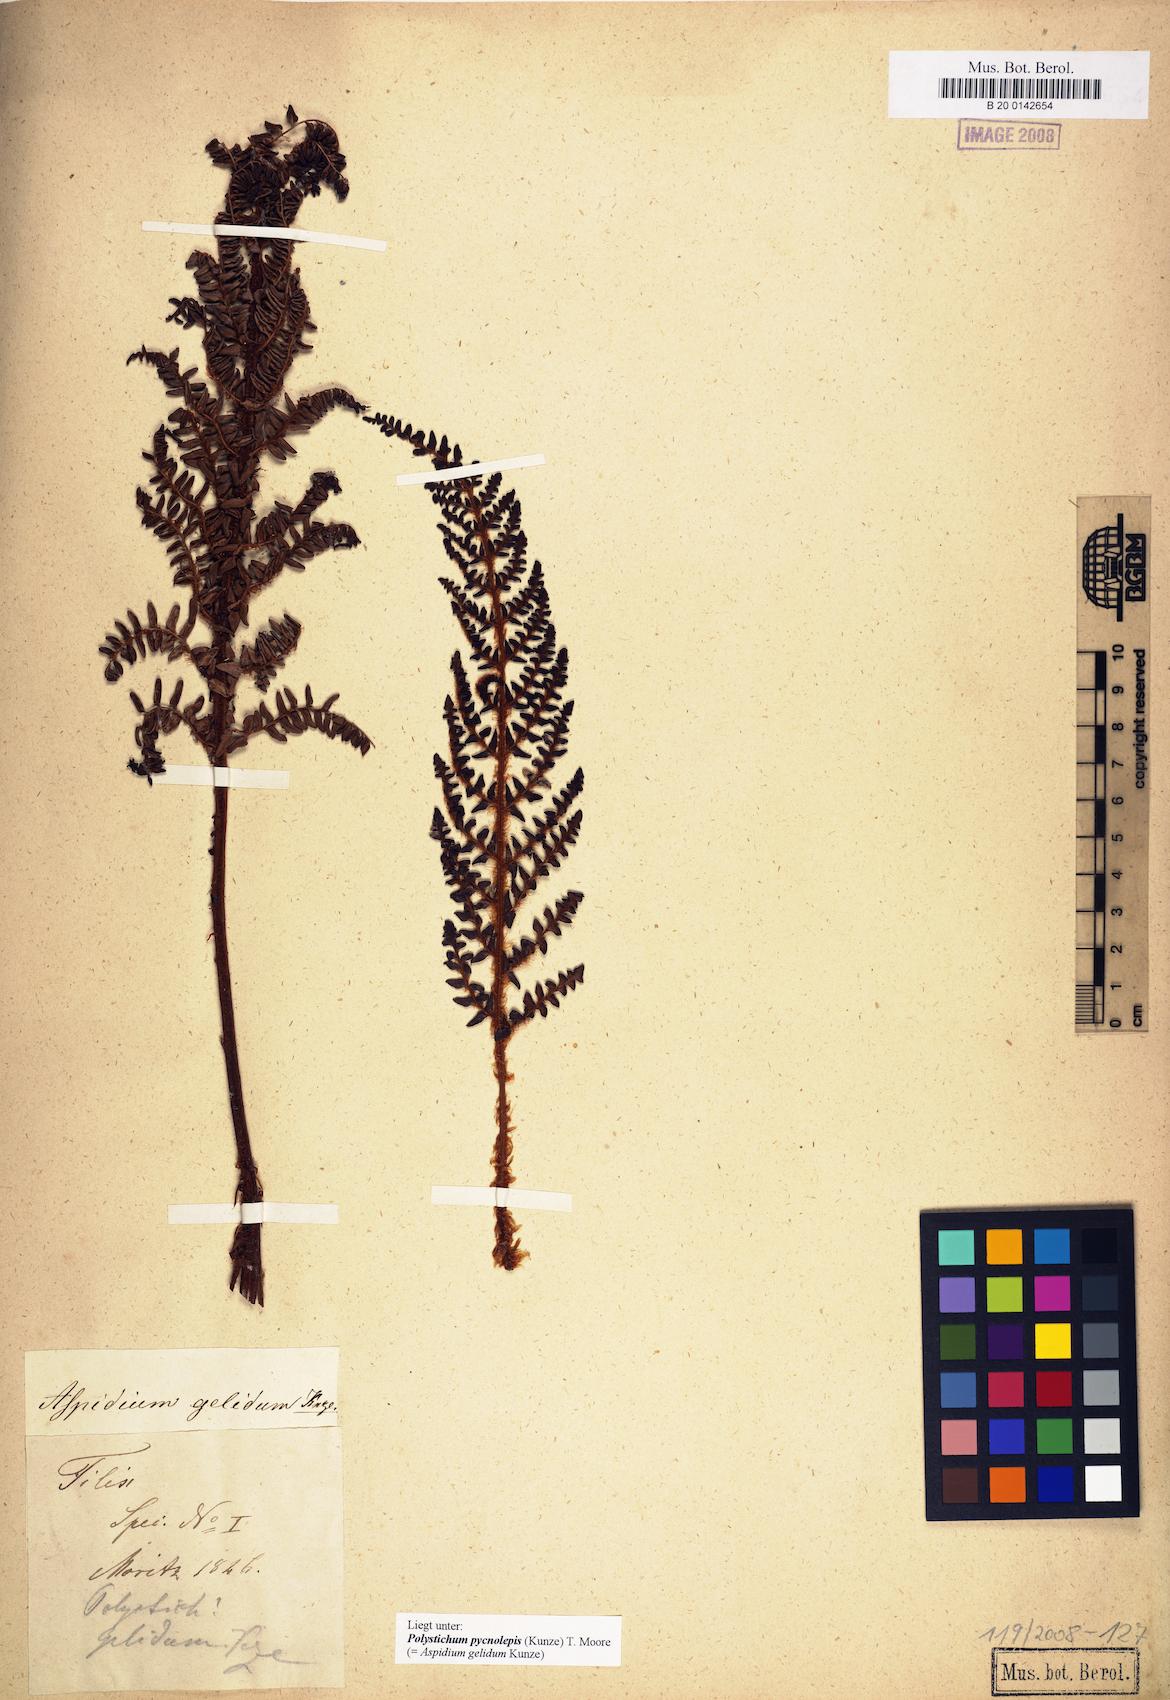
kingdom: Plantae
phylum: Tracheophyta
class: Polypodiopsida
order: Polypodiales
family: Dryopteridaceae
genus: Polystichum
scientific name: Polystichum pycnolepis
